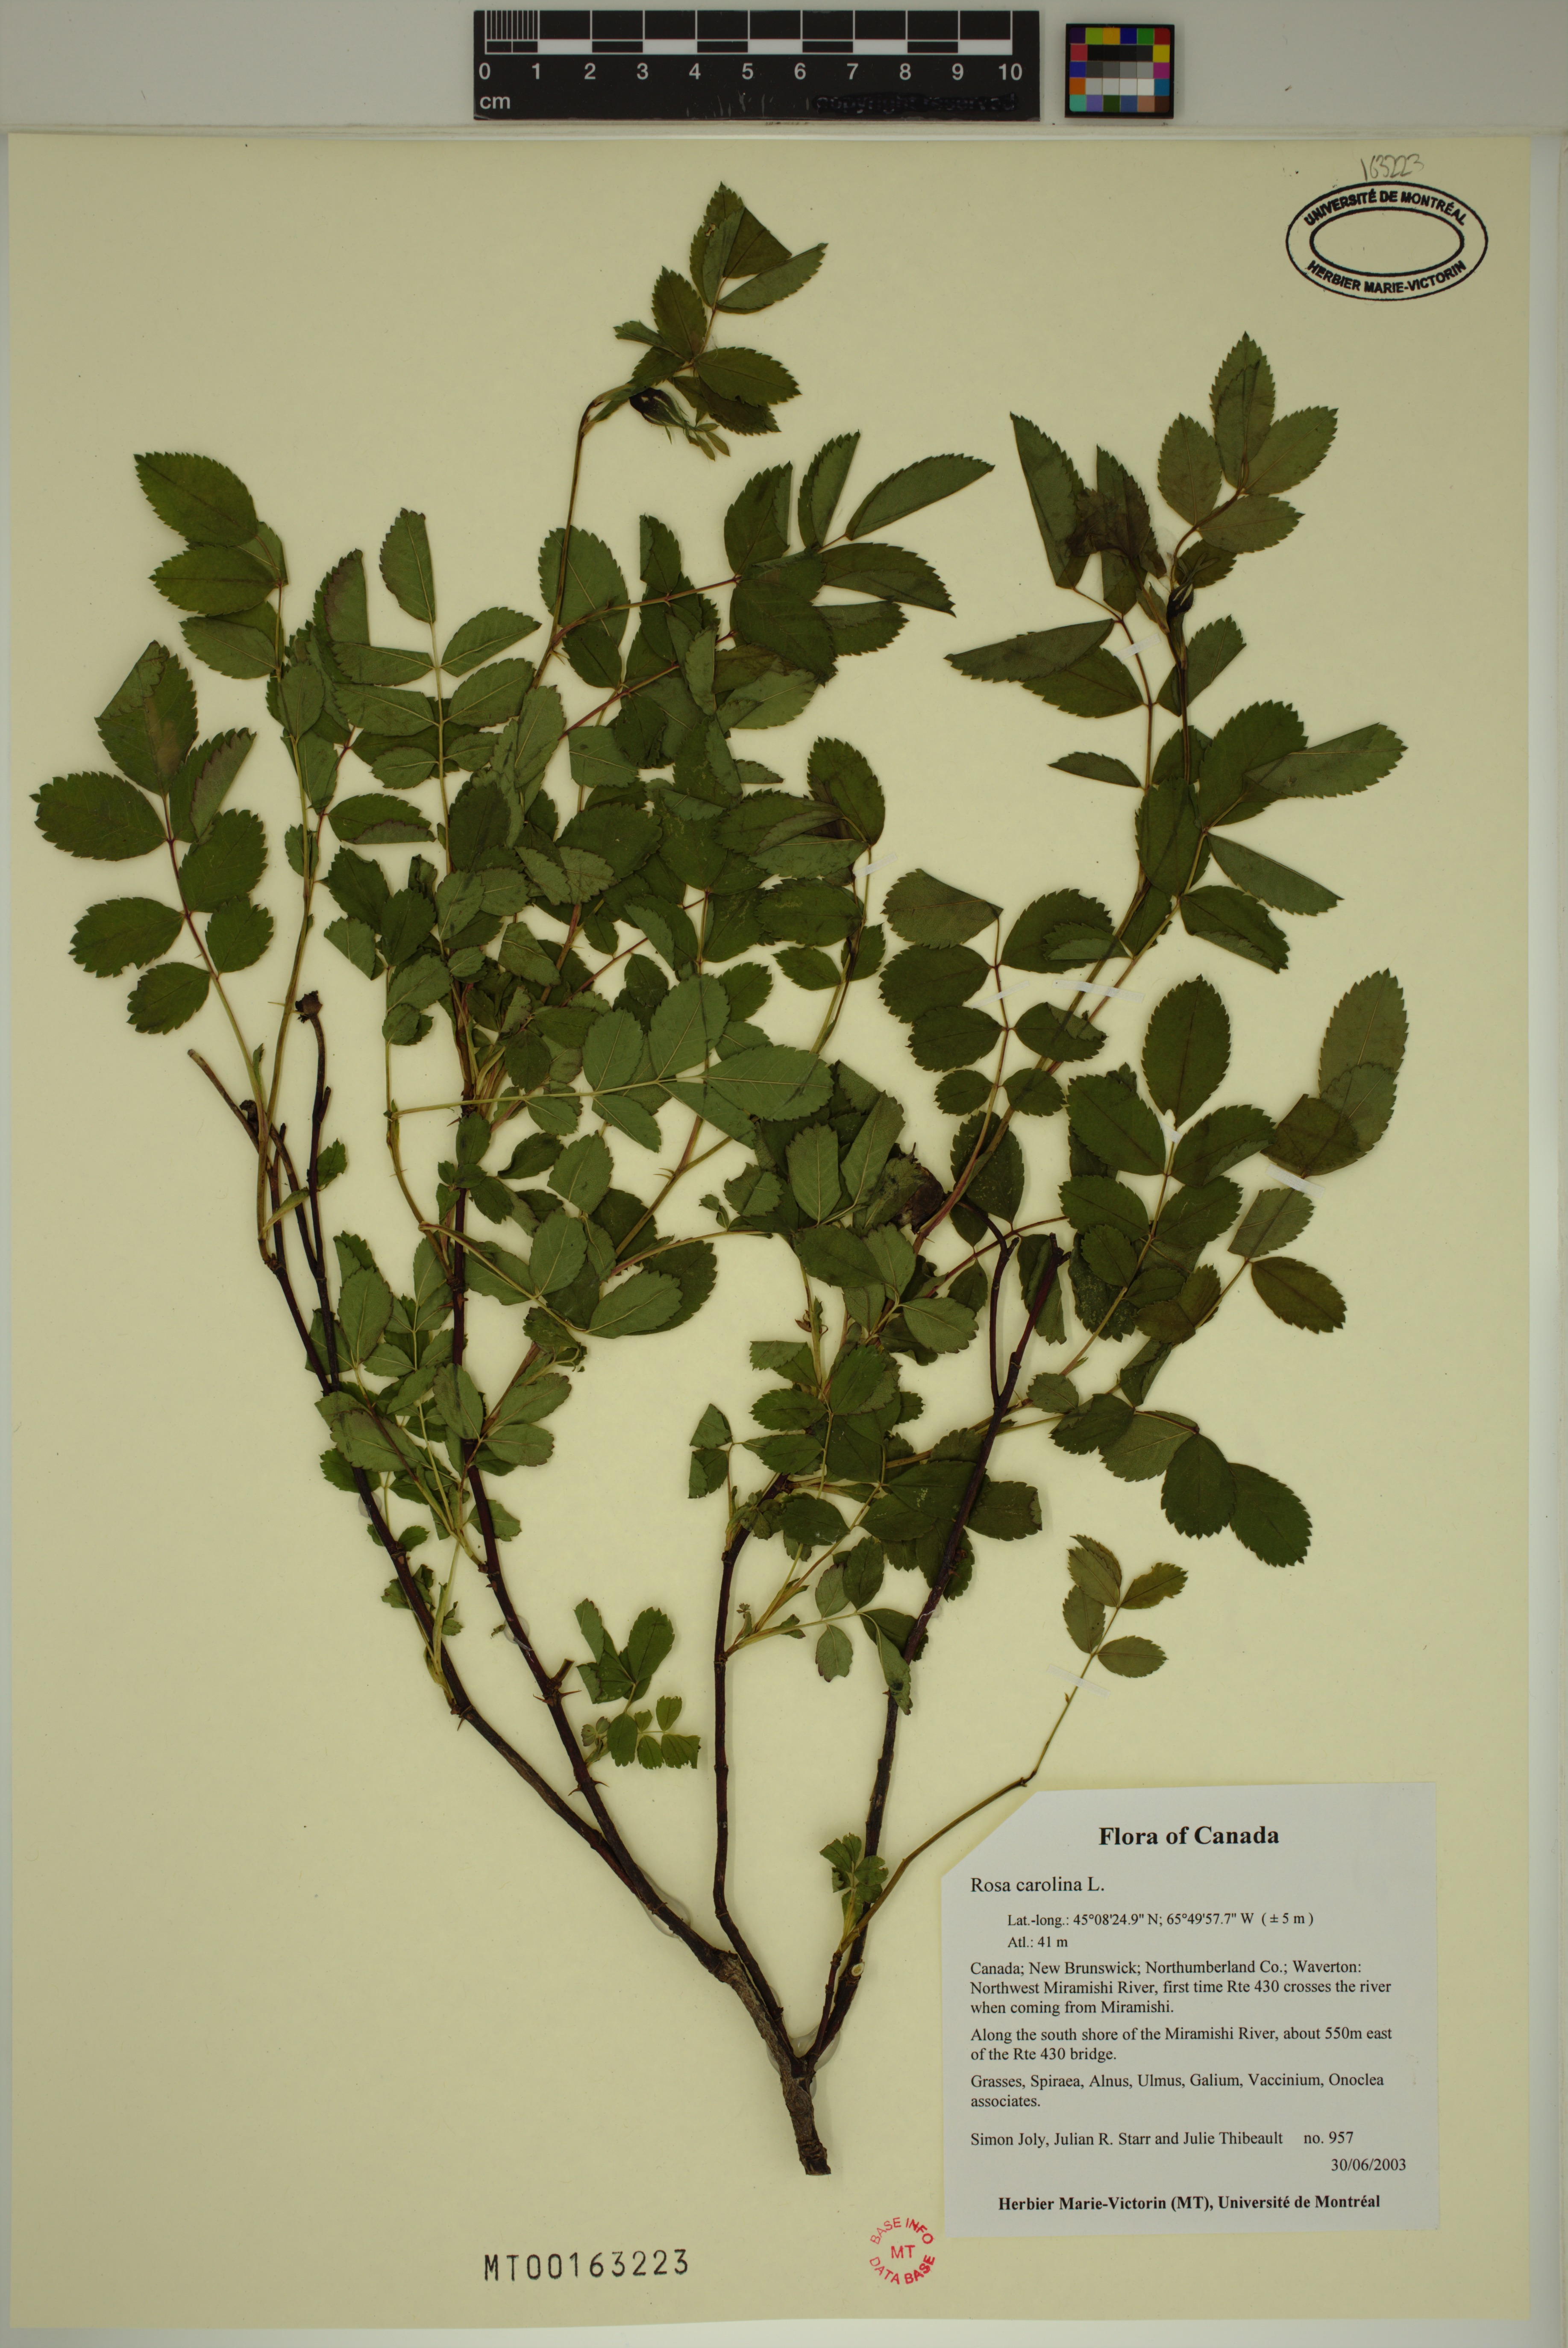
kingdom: Plantae
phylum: Tracheophyta
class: Magnoliopsida
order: Rosales
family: Rosaceae
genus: Rosa
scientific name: Rosa carolina
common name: Pasture rose
